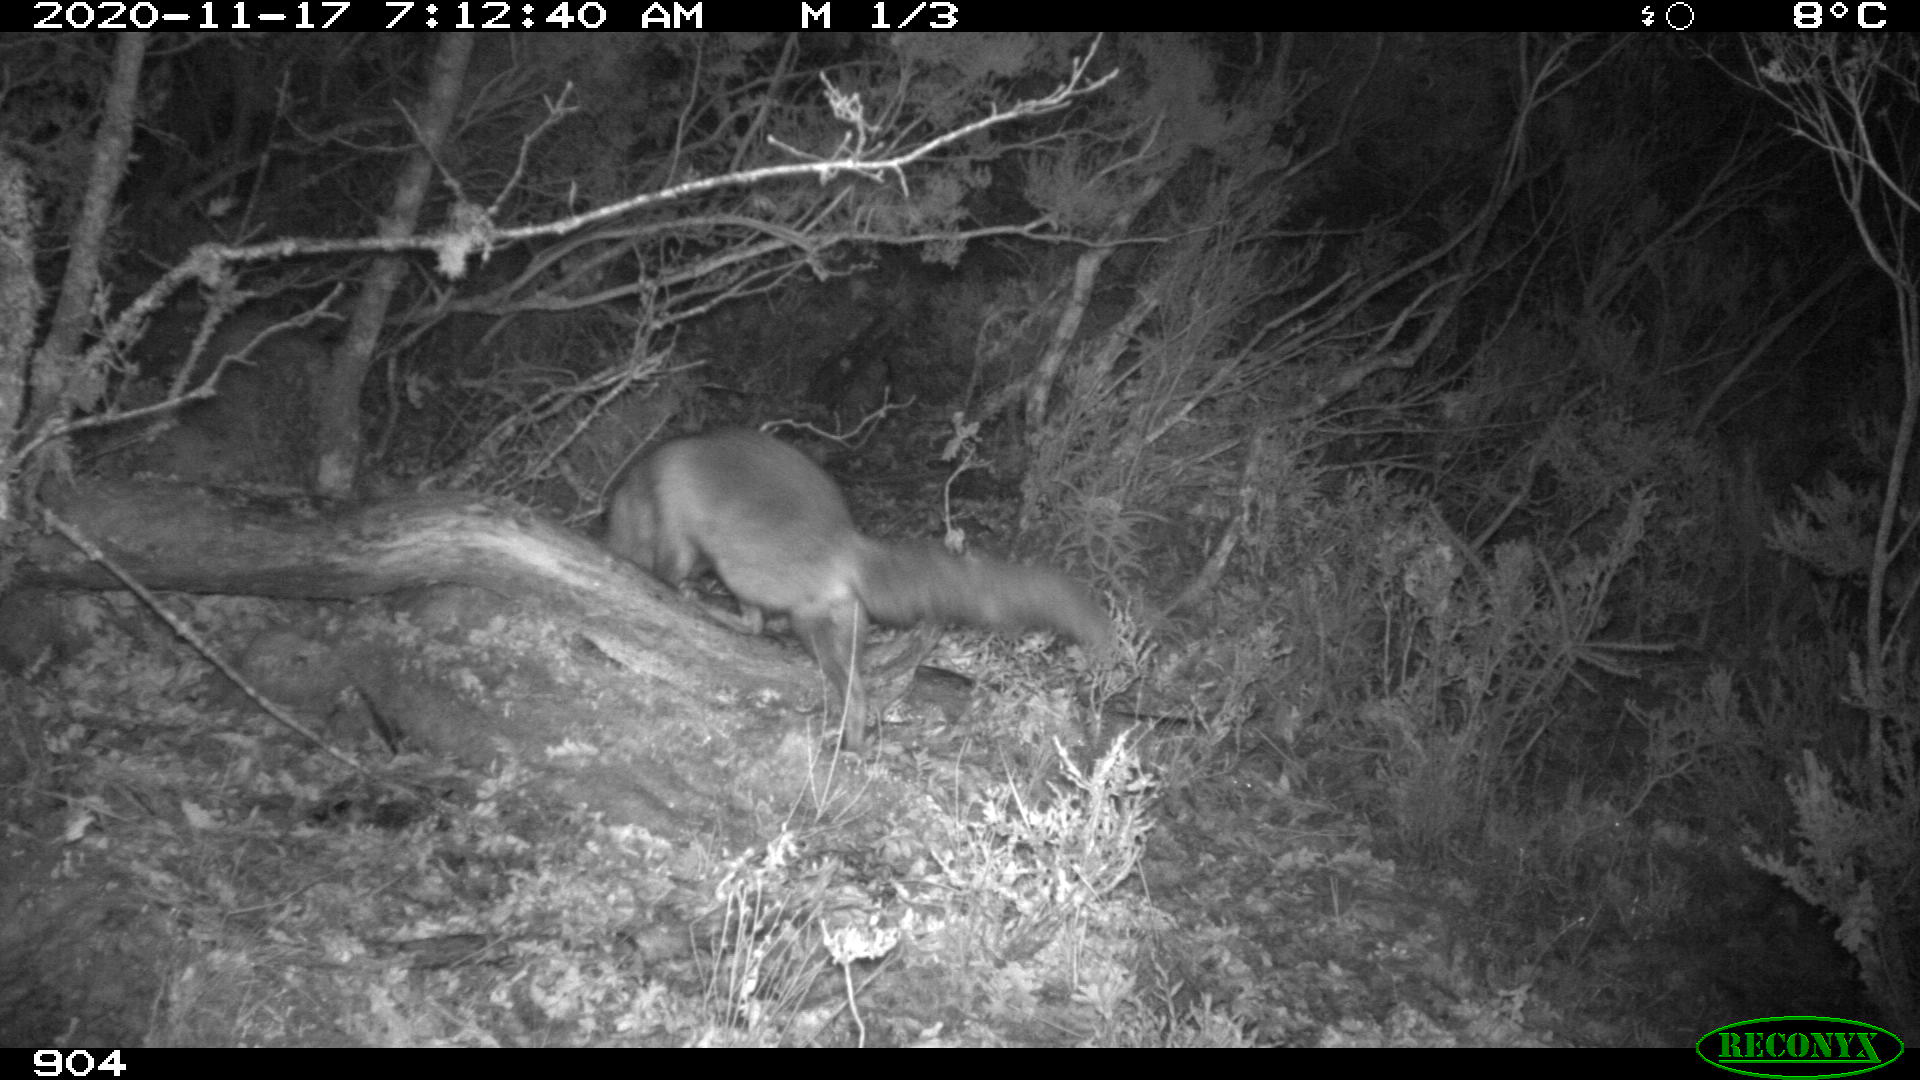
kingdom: Animalia
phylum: Chordata
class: Mammalia
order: Carnivora
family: Canidae
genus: Vulpes
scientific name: Vulpes vulpes
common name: Red fox
